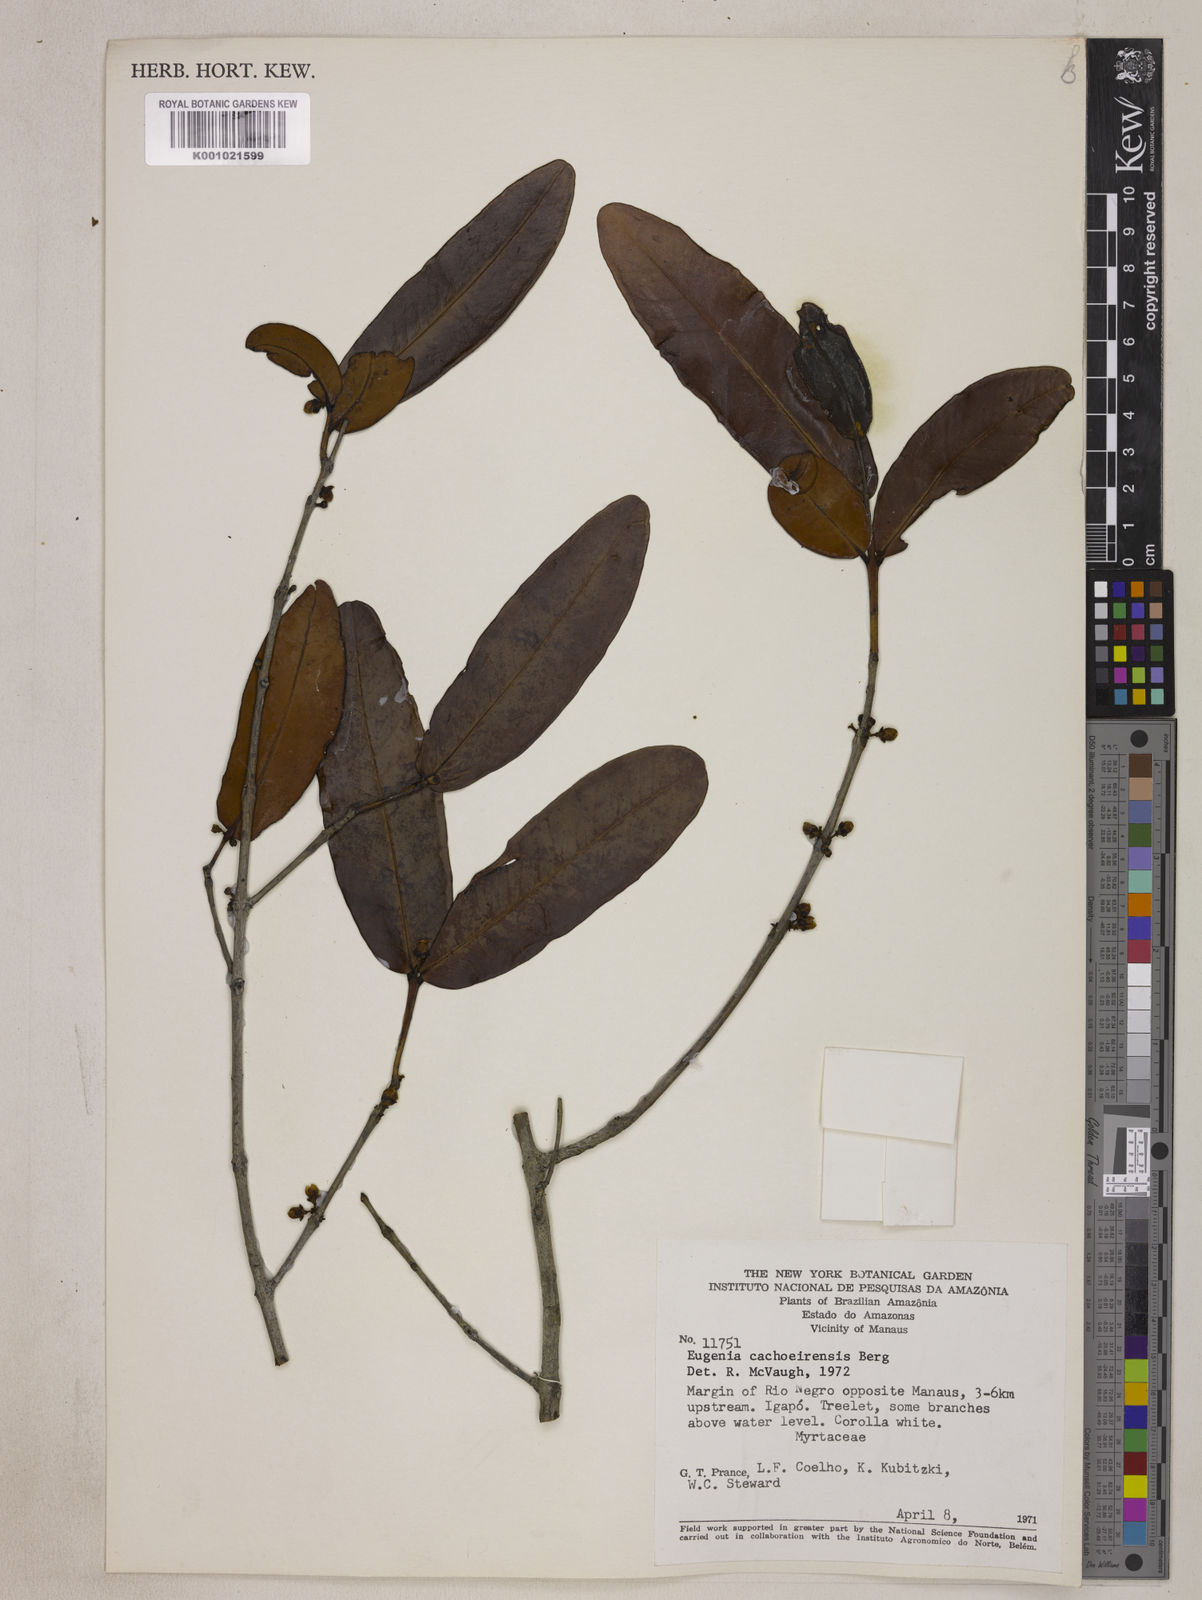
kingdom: Plantae
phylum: Tracheophyta
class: Magnoliopsida
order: Myrtales
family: Myrtaceae
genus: Eugenia
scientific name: Eugenia cachoeirensis
